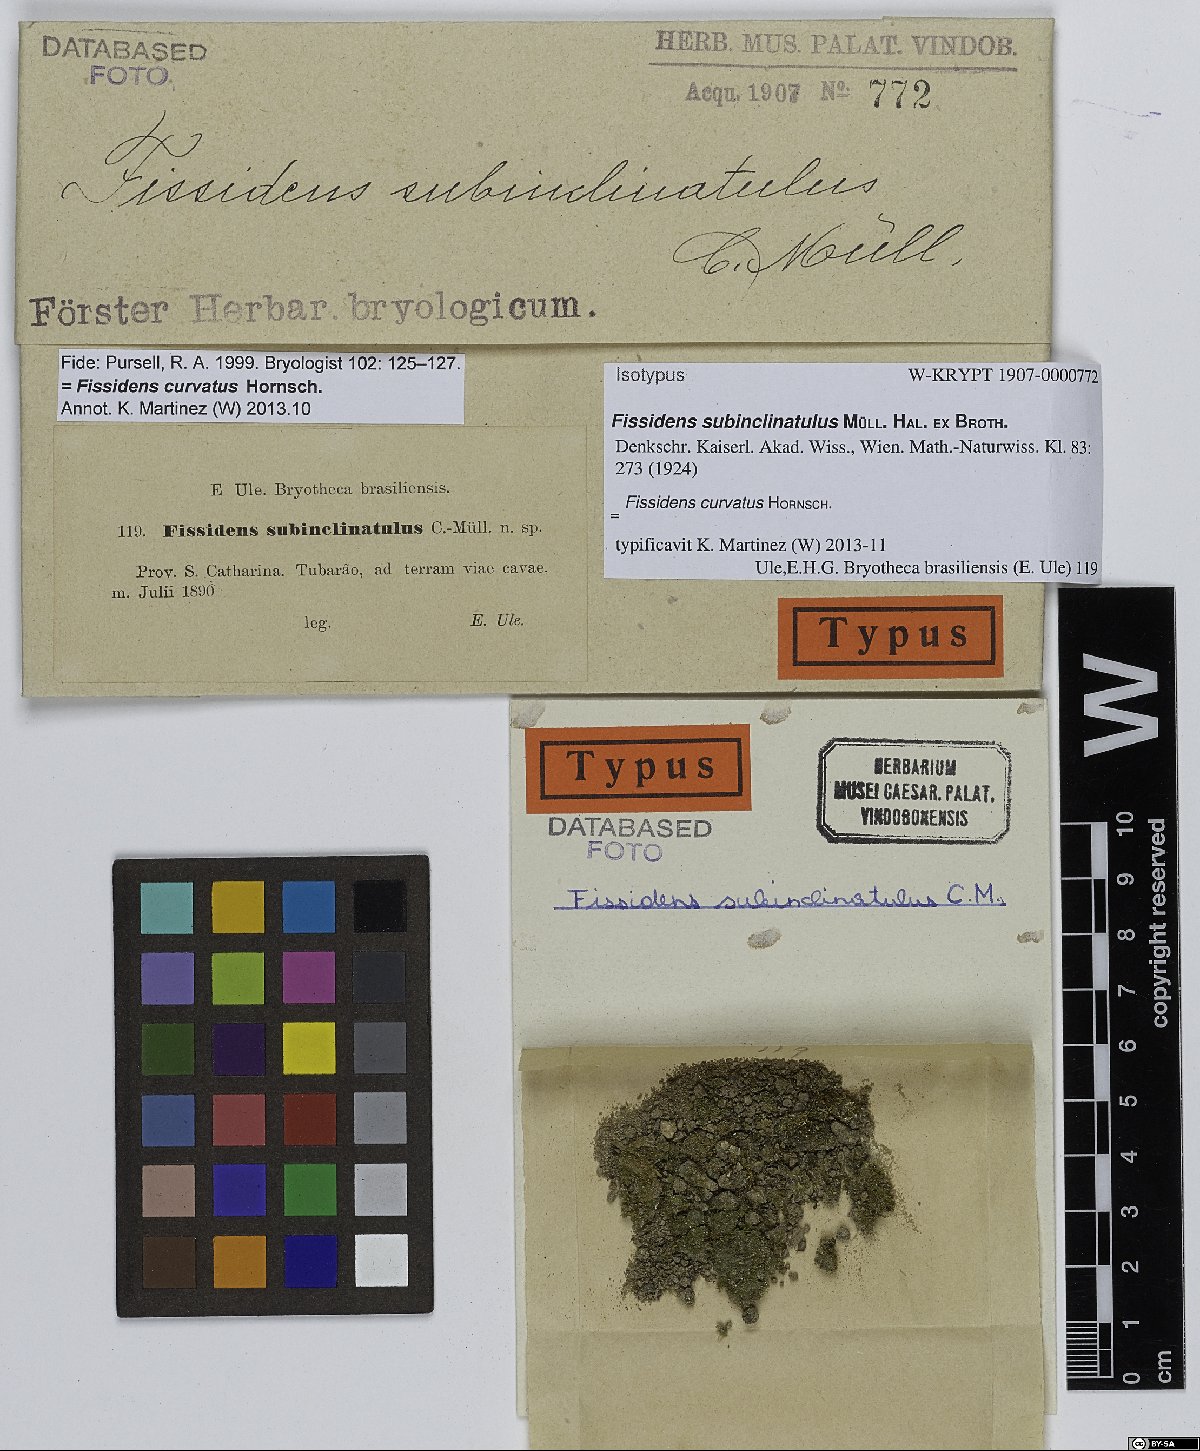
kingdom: Plantae
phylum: Bryophyta
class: Bryopsida
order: Dicranales
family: Fissidentaceae
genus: Fissidens
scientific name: Fissidens curvatus
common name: Milo's fissidens moss
